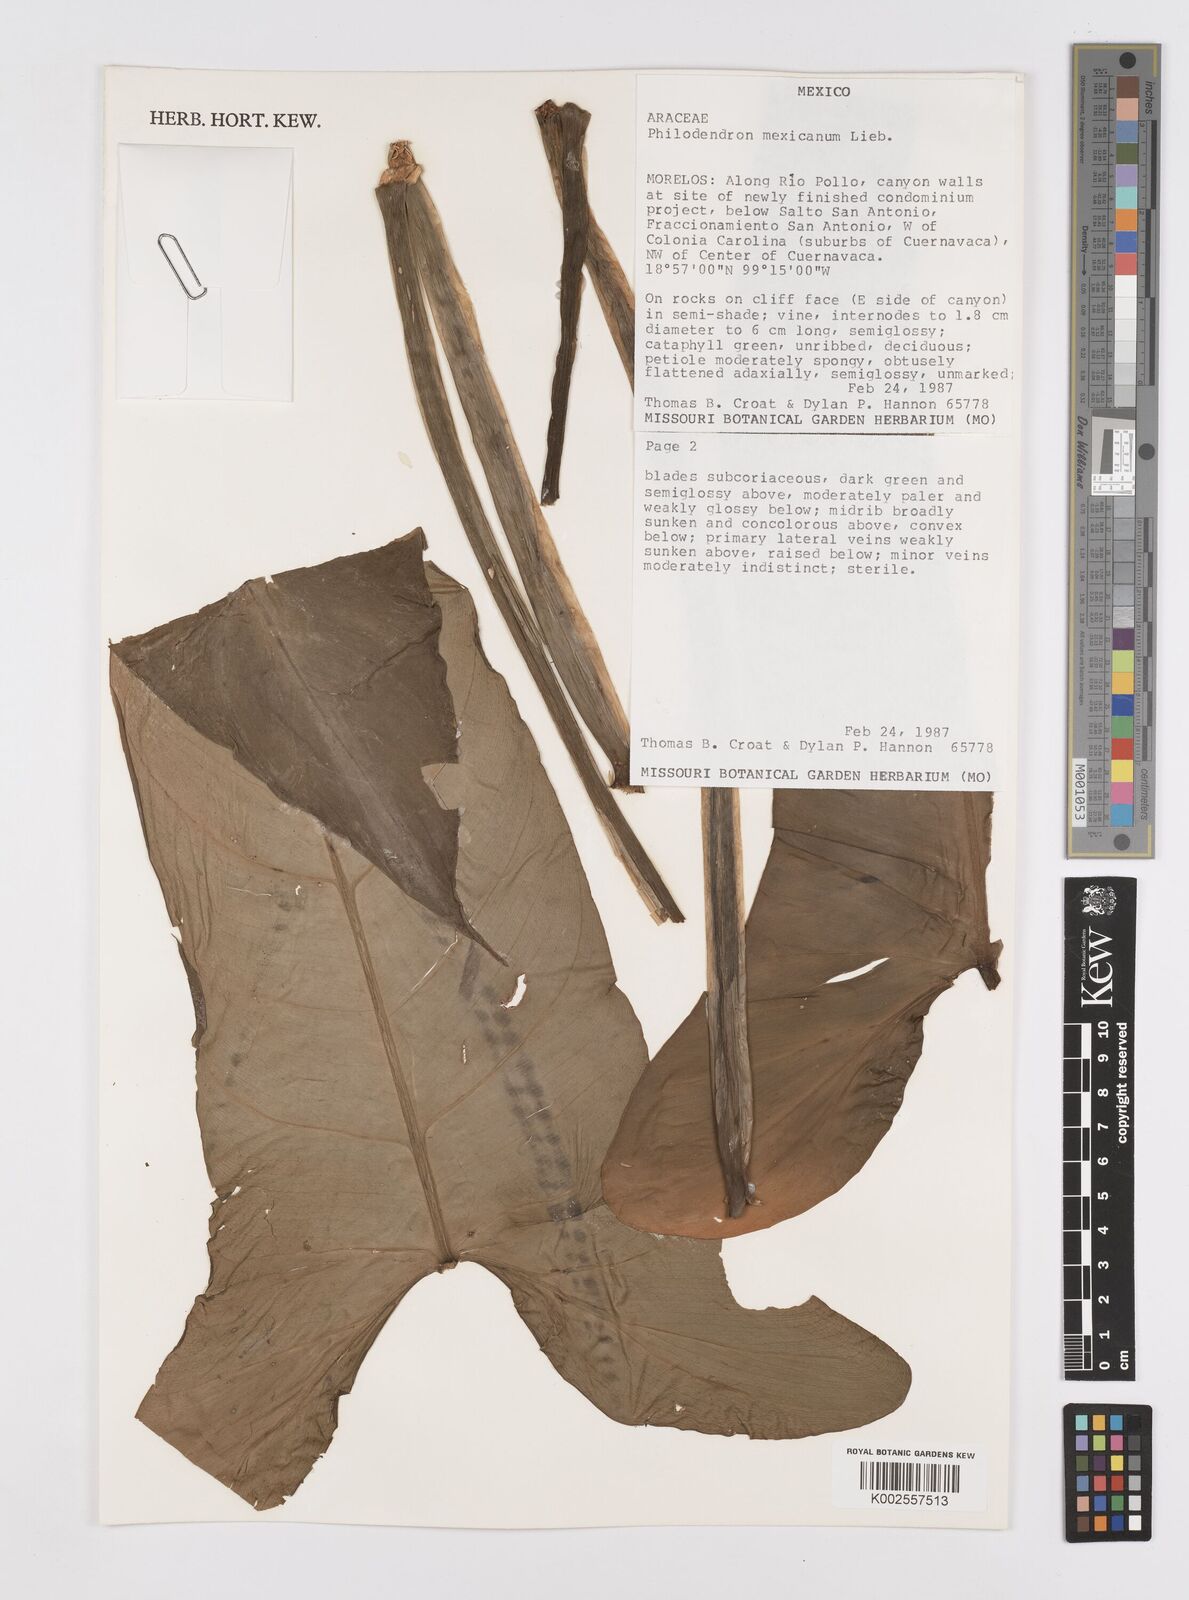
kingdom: Plantae
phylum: Tracheophyta
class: Liliopsida
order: Alismatales
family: Araceae
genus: Philodendron
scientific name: Philodendron mexicanum
